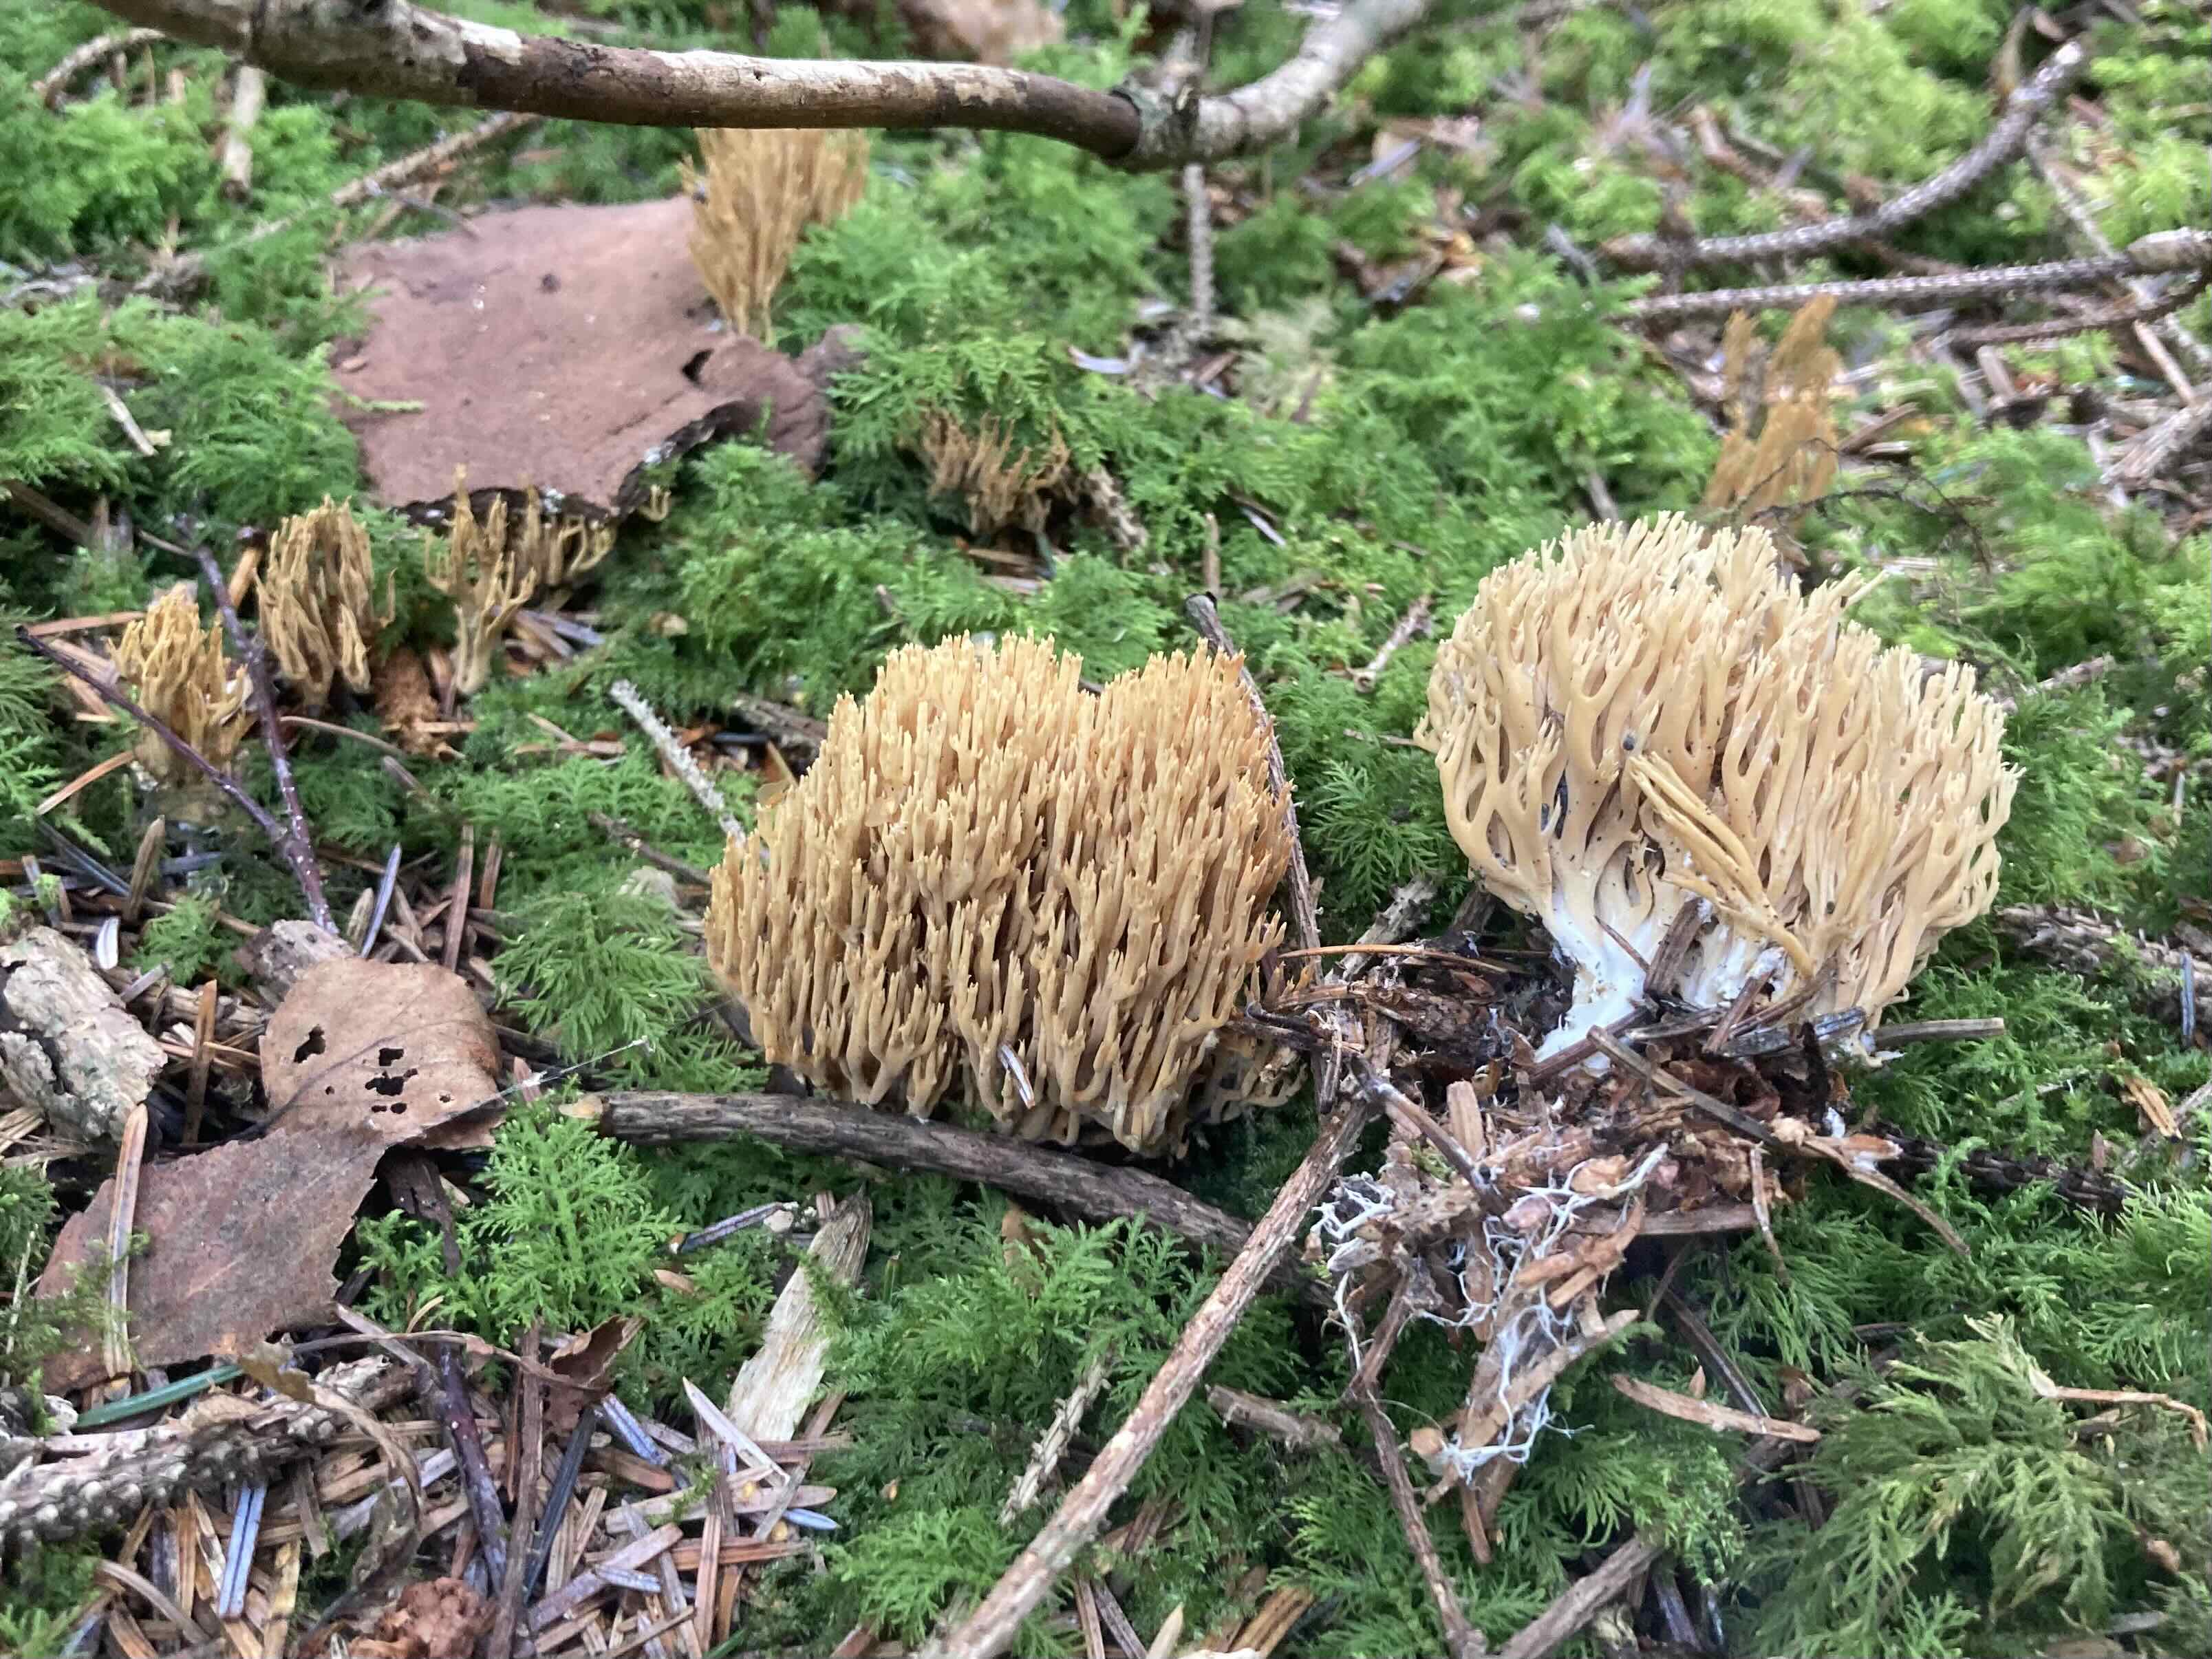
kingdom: Fungi
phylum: Basidiomycota
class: Agaricomycetes
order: Gomphales
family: Gomphaceae
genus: Phaeoclavulina
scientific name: Phaeoclavulina eumorpha
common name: gran-koralsvamp
